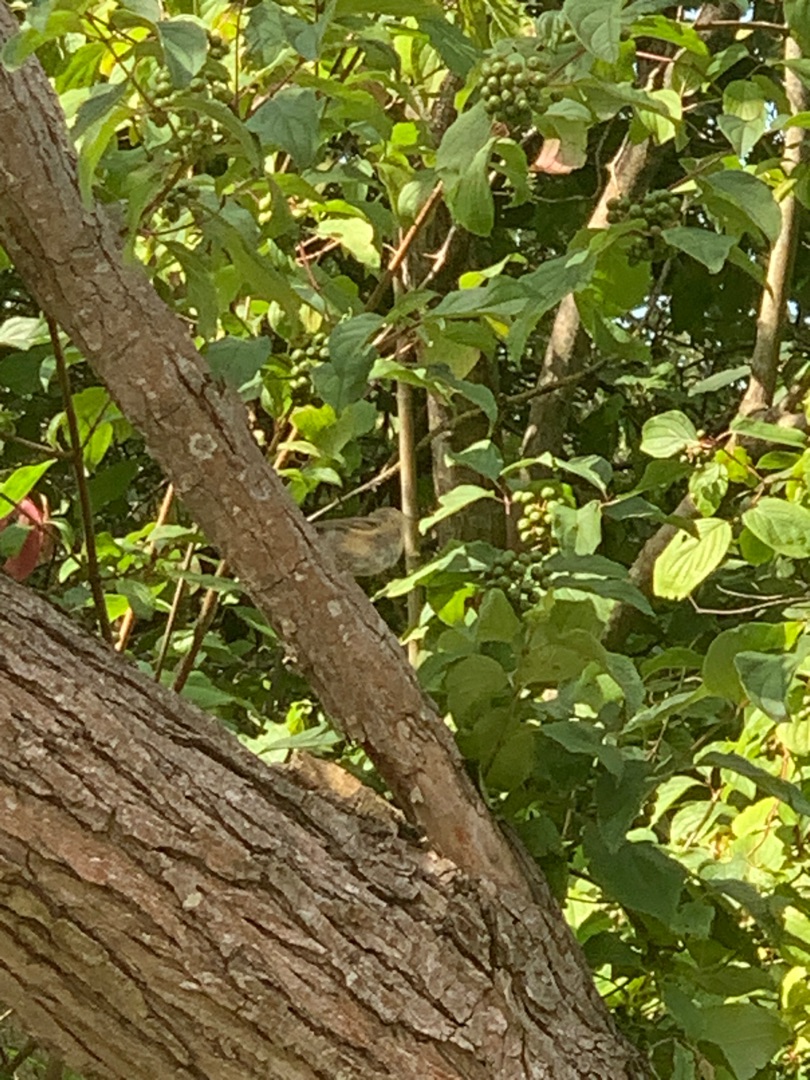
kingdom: Animalia
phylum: Chordata
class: Aves
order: Passeriformes
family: Phylloscopidae
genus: Phylloscopus
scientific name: Phylloscopus collybita
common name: Gransanger
